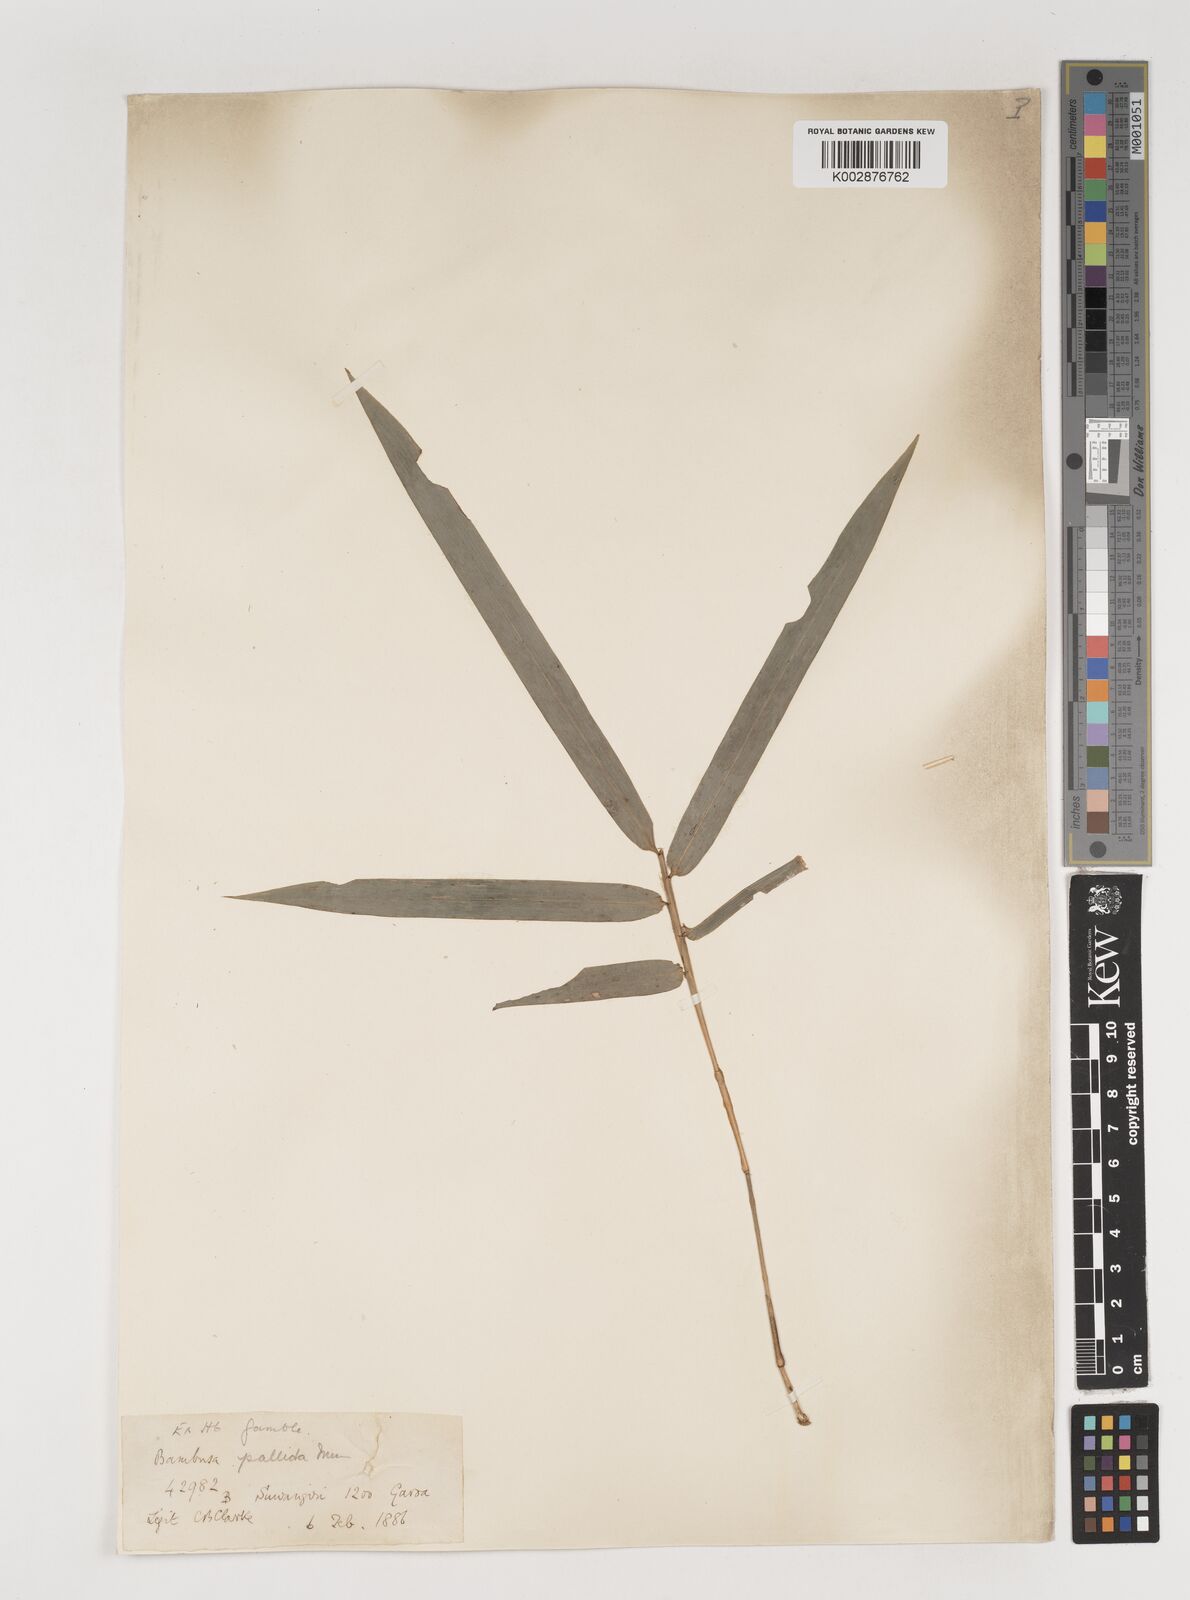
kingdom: Plantae
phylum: Tracheophyta
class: Liliopsida
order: Poales
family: Poaceae
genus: Bambusa
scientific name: Bambusa pallida
